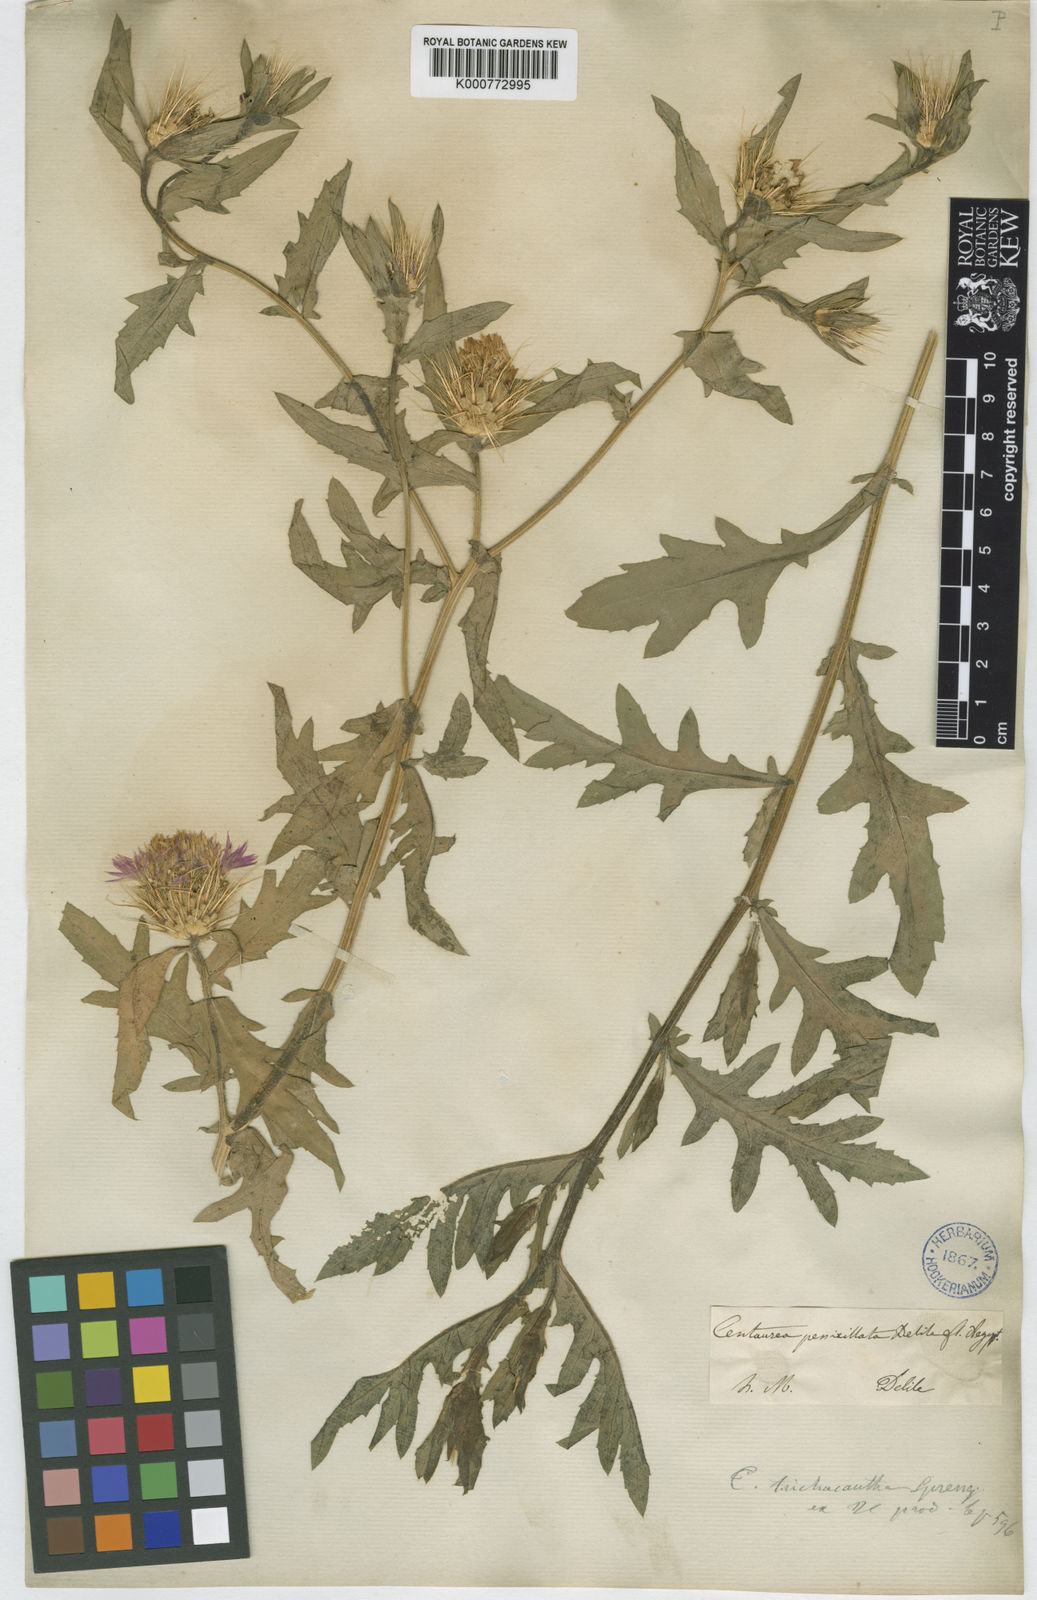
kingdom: Plantae
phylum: Tracheophyta
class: Magnoliopsida
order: Asterales
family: Asteraceae
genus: Centaurea
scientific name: Centaurea calcitrapa
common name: Red star-thistle
